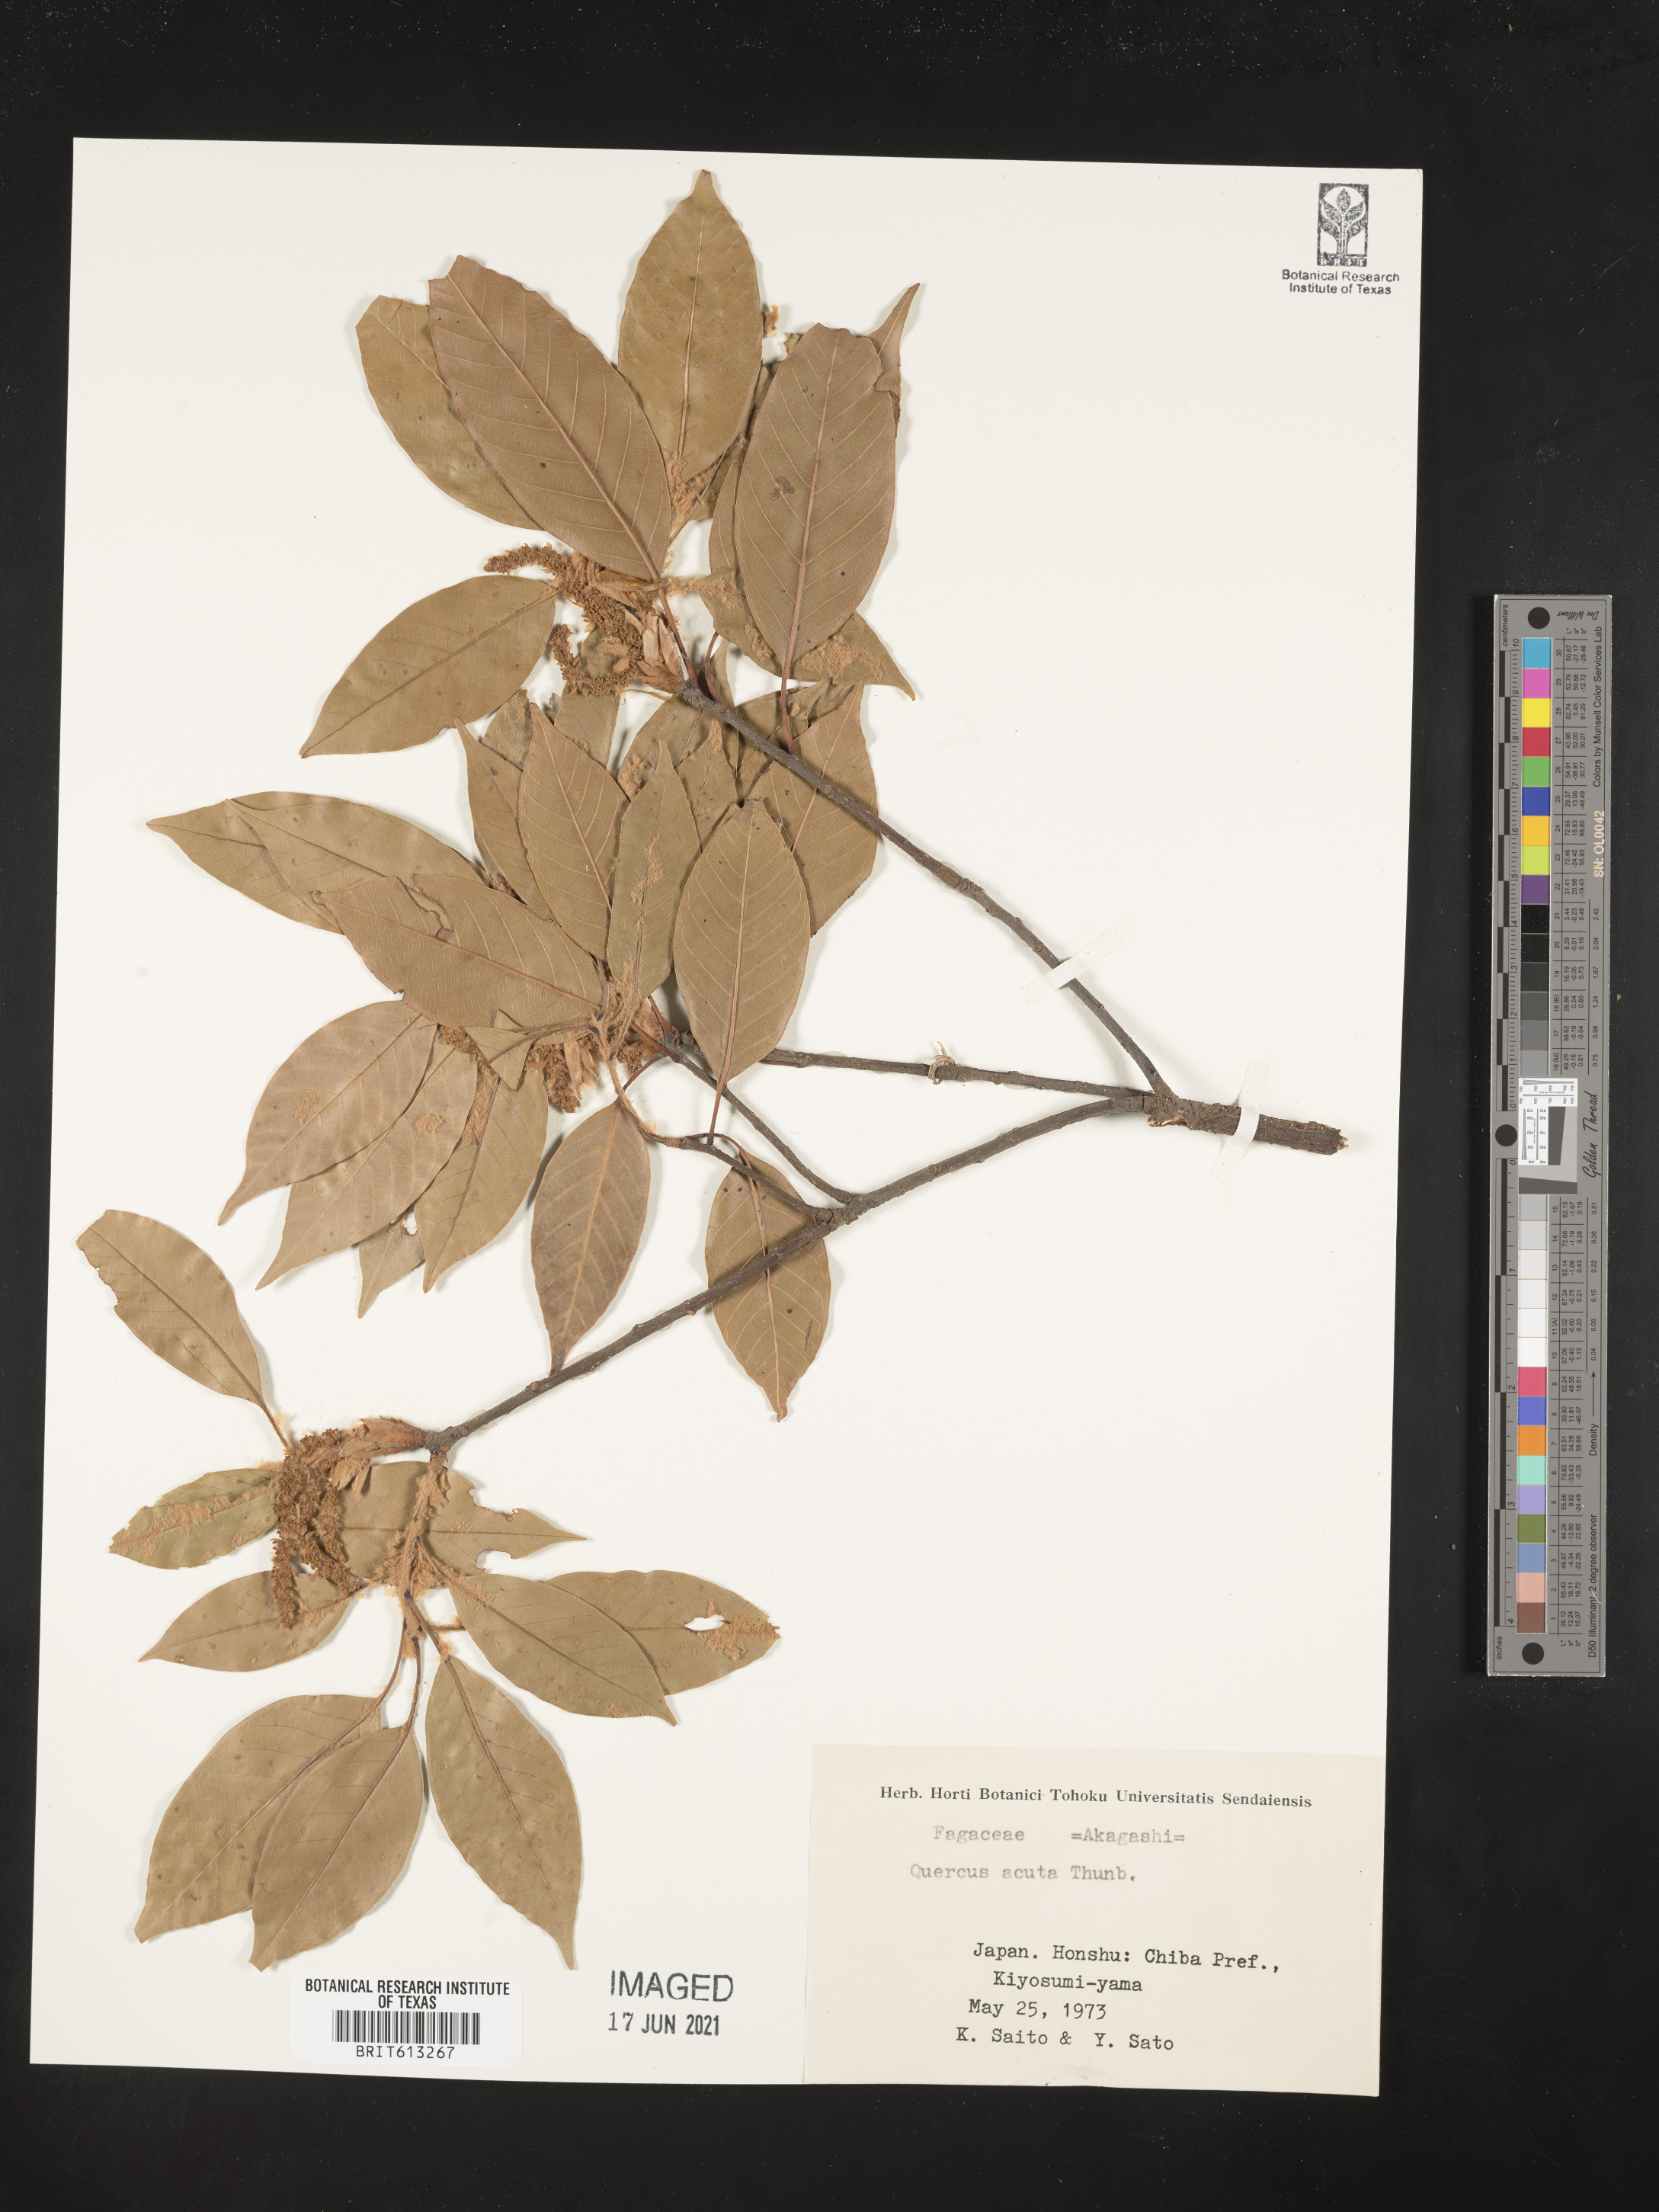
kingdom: Plantae
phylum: Tracheophyta
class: Magnoliopsida
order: Fagales
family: Fagaceae
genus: Quercus
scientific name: Quercus acuta
